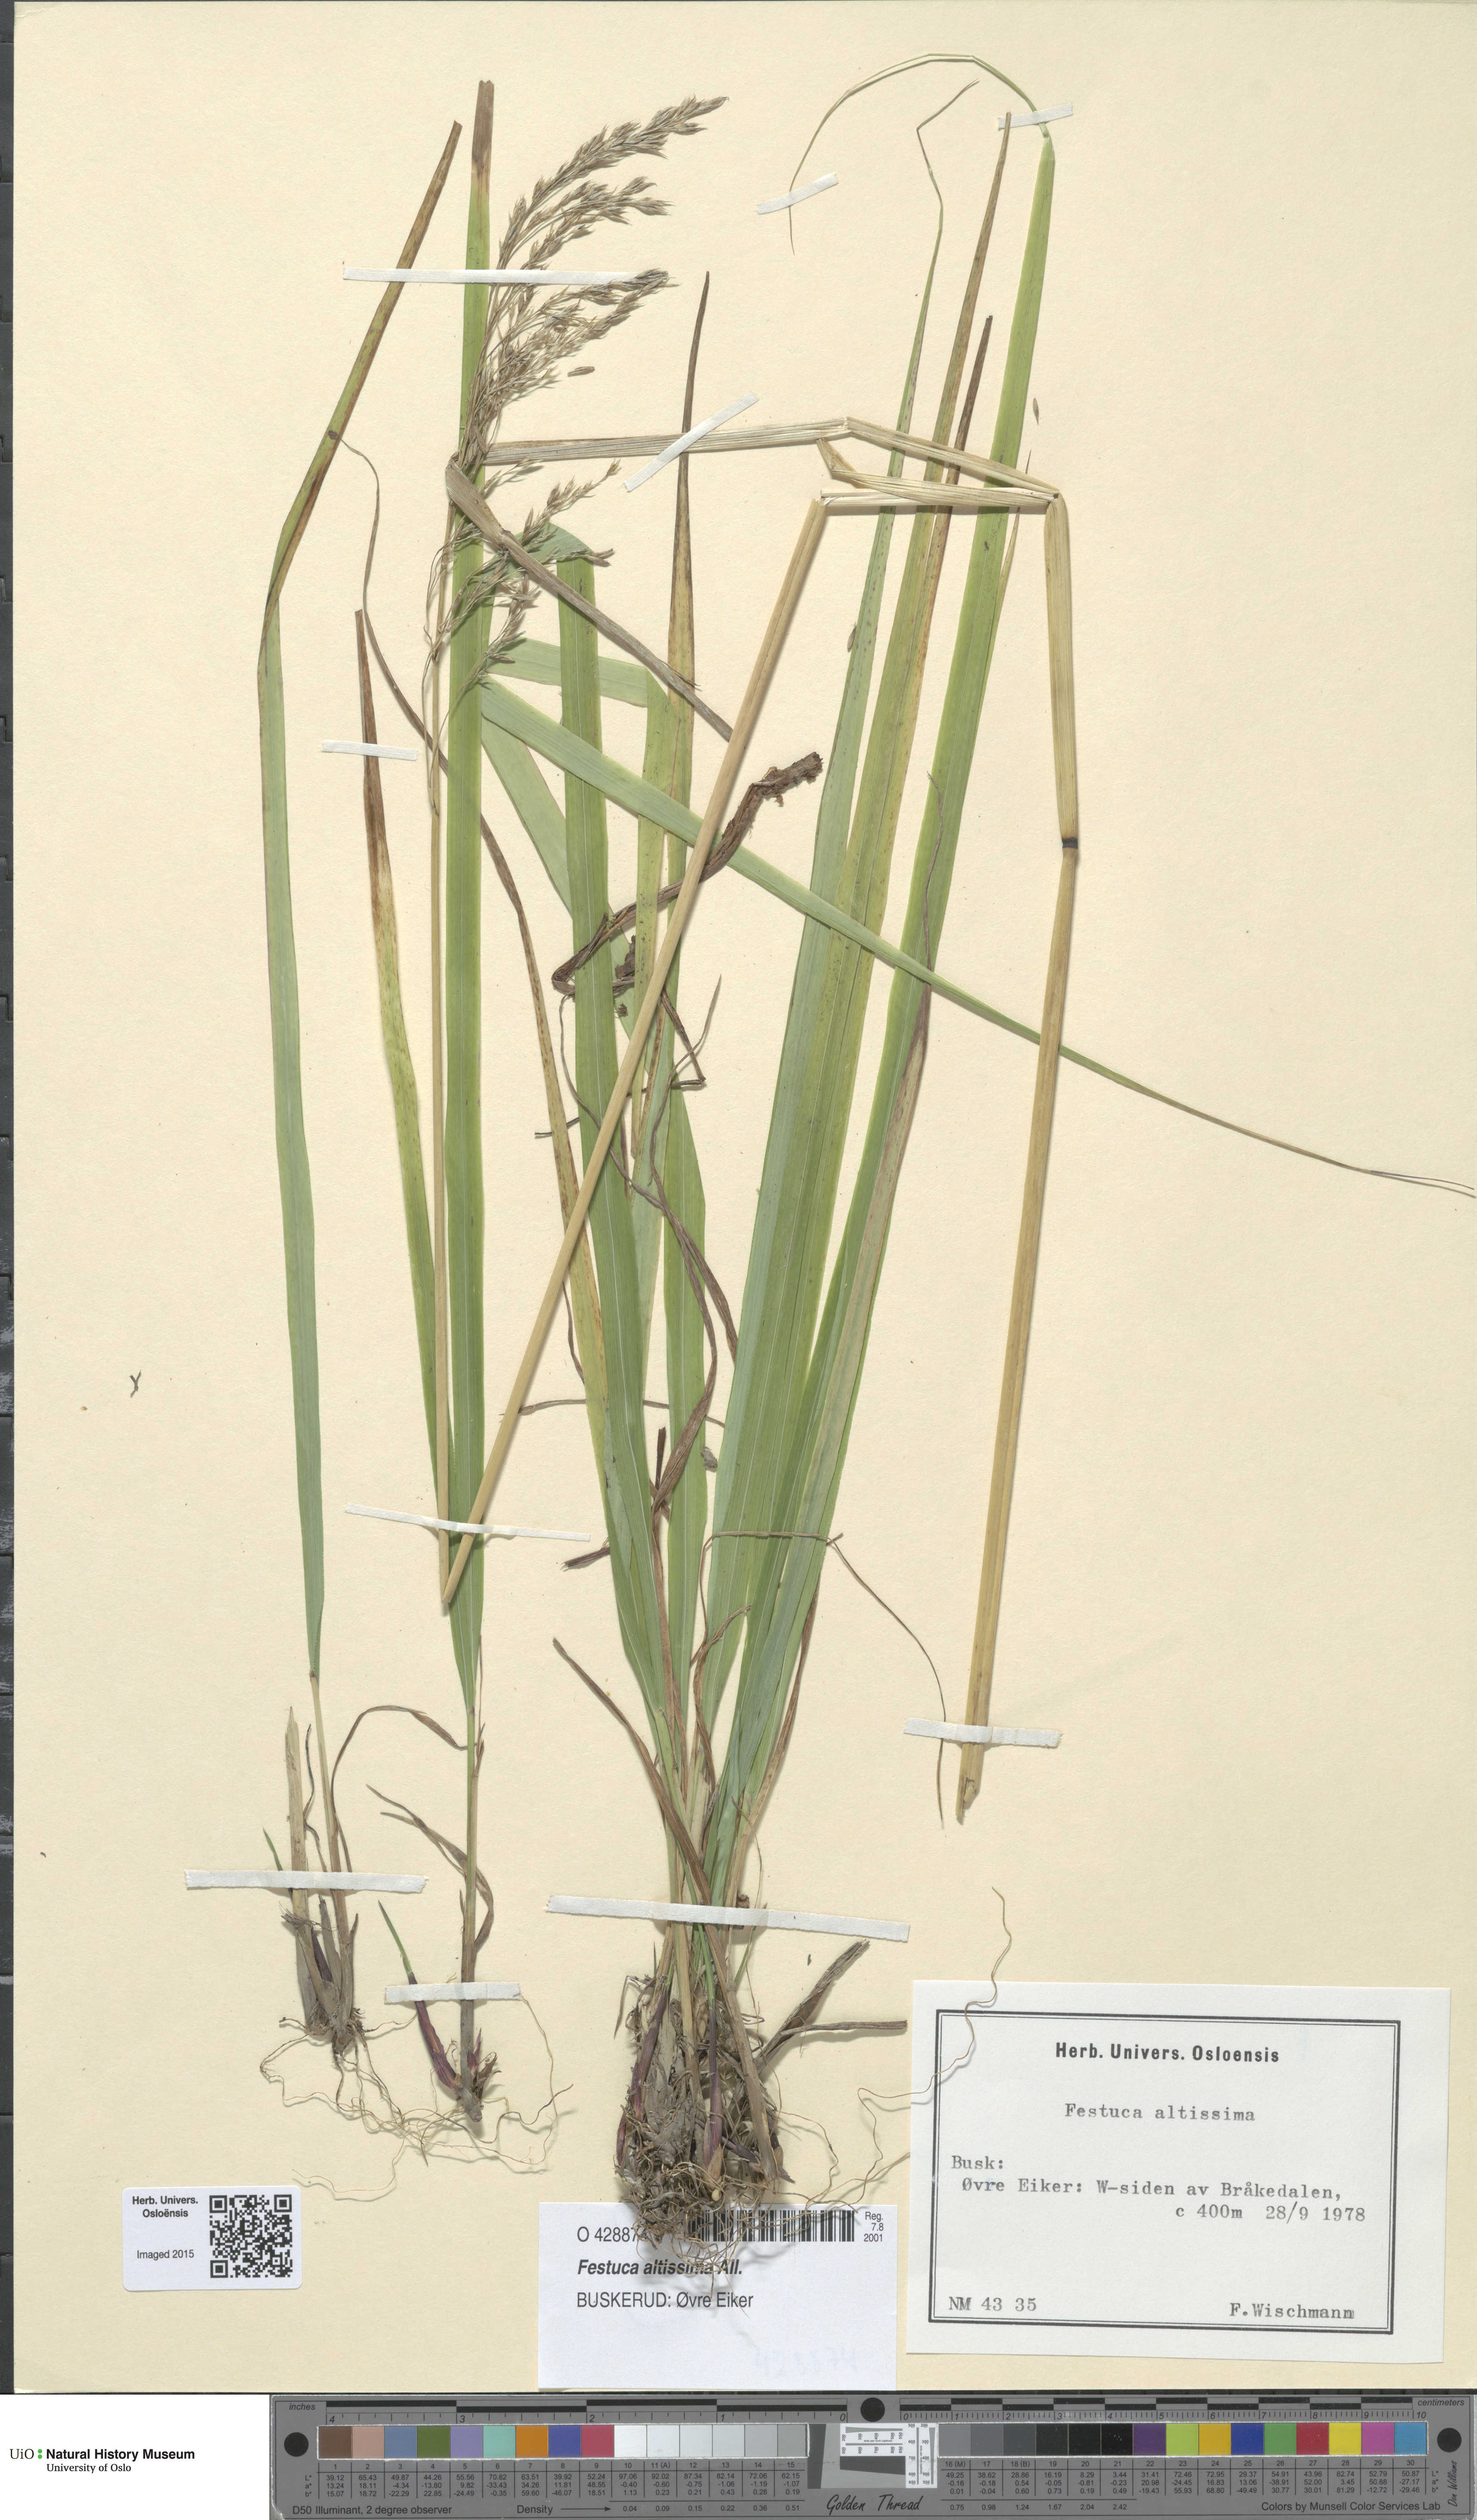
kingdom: Plantae
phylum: Tracheophyta
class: Liliopsida
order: Poales
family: Poaceae
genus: Festuca
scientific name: Festuca altissima
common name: Wood fescue
